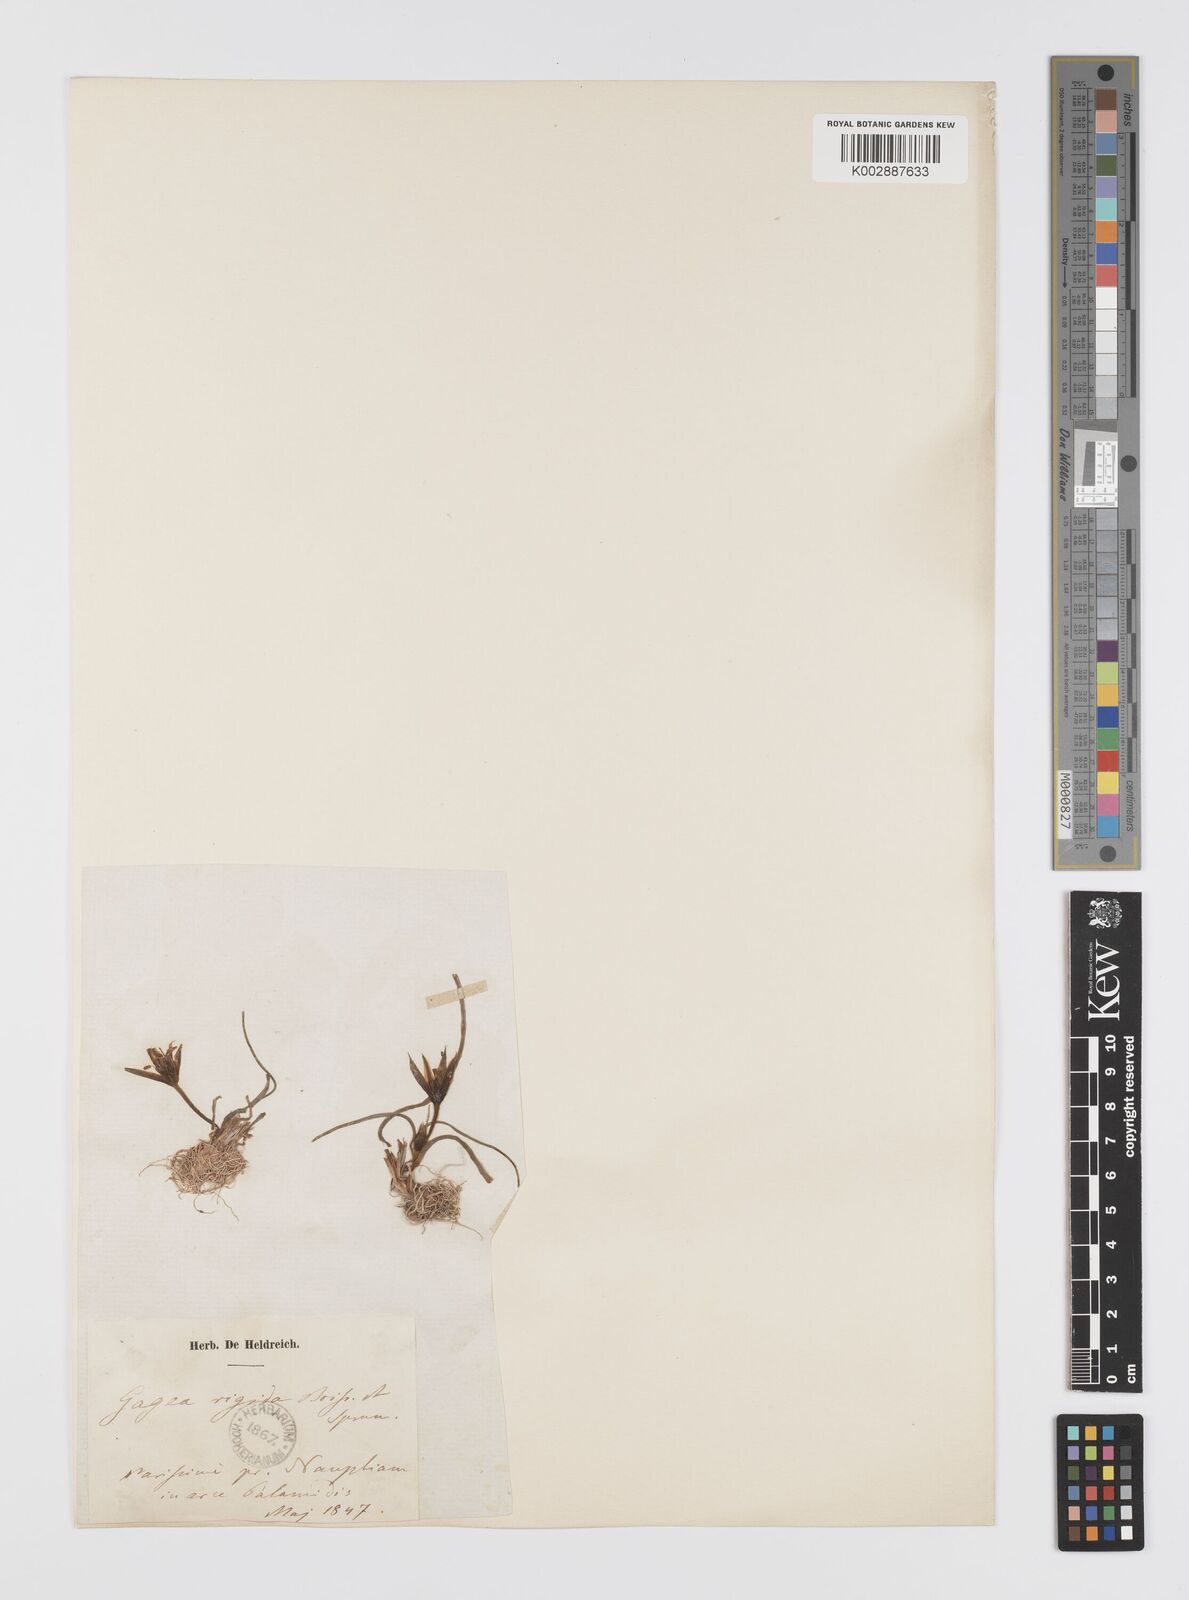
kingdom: Plantae
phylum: Tracheophyta
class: Liliopsida
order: Liliales
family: Liliaceae
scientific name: Liliaceae
